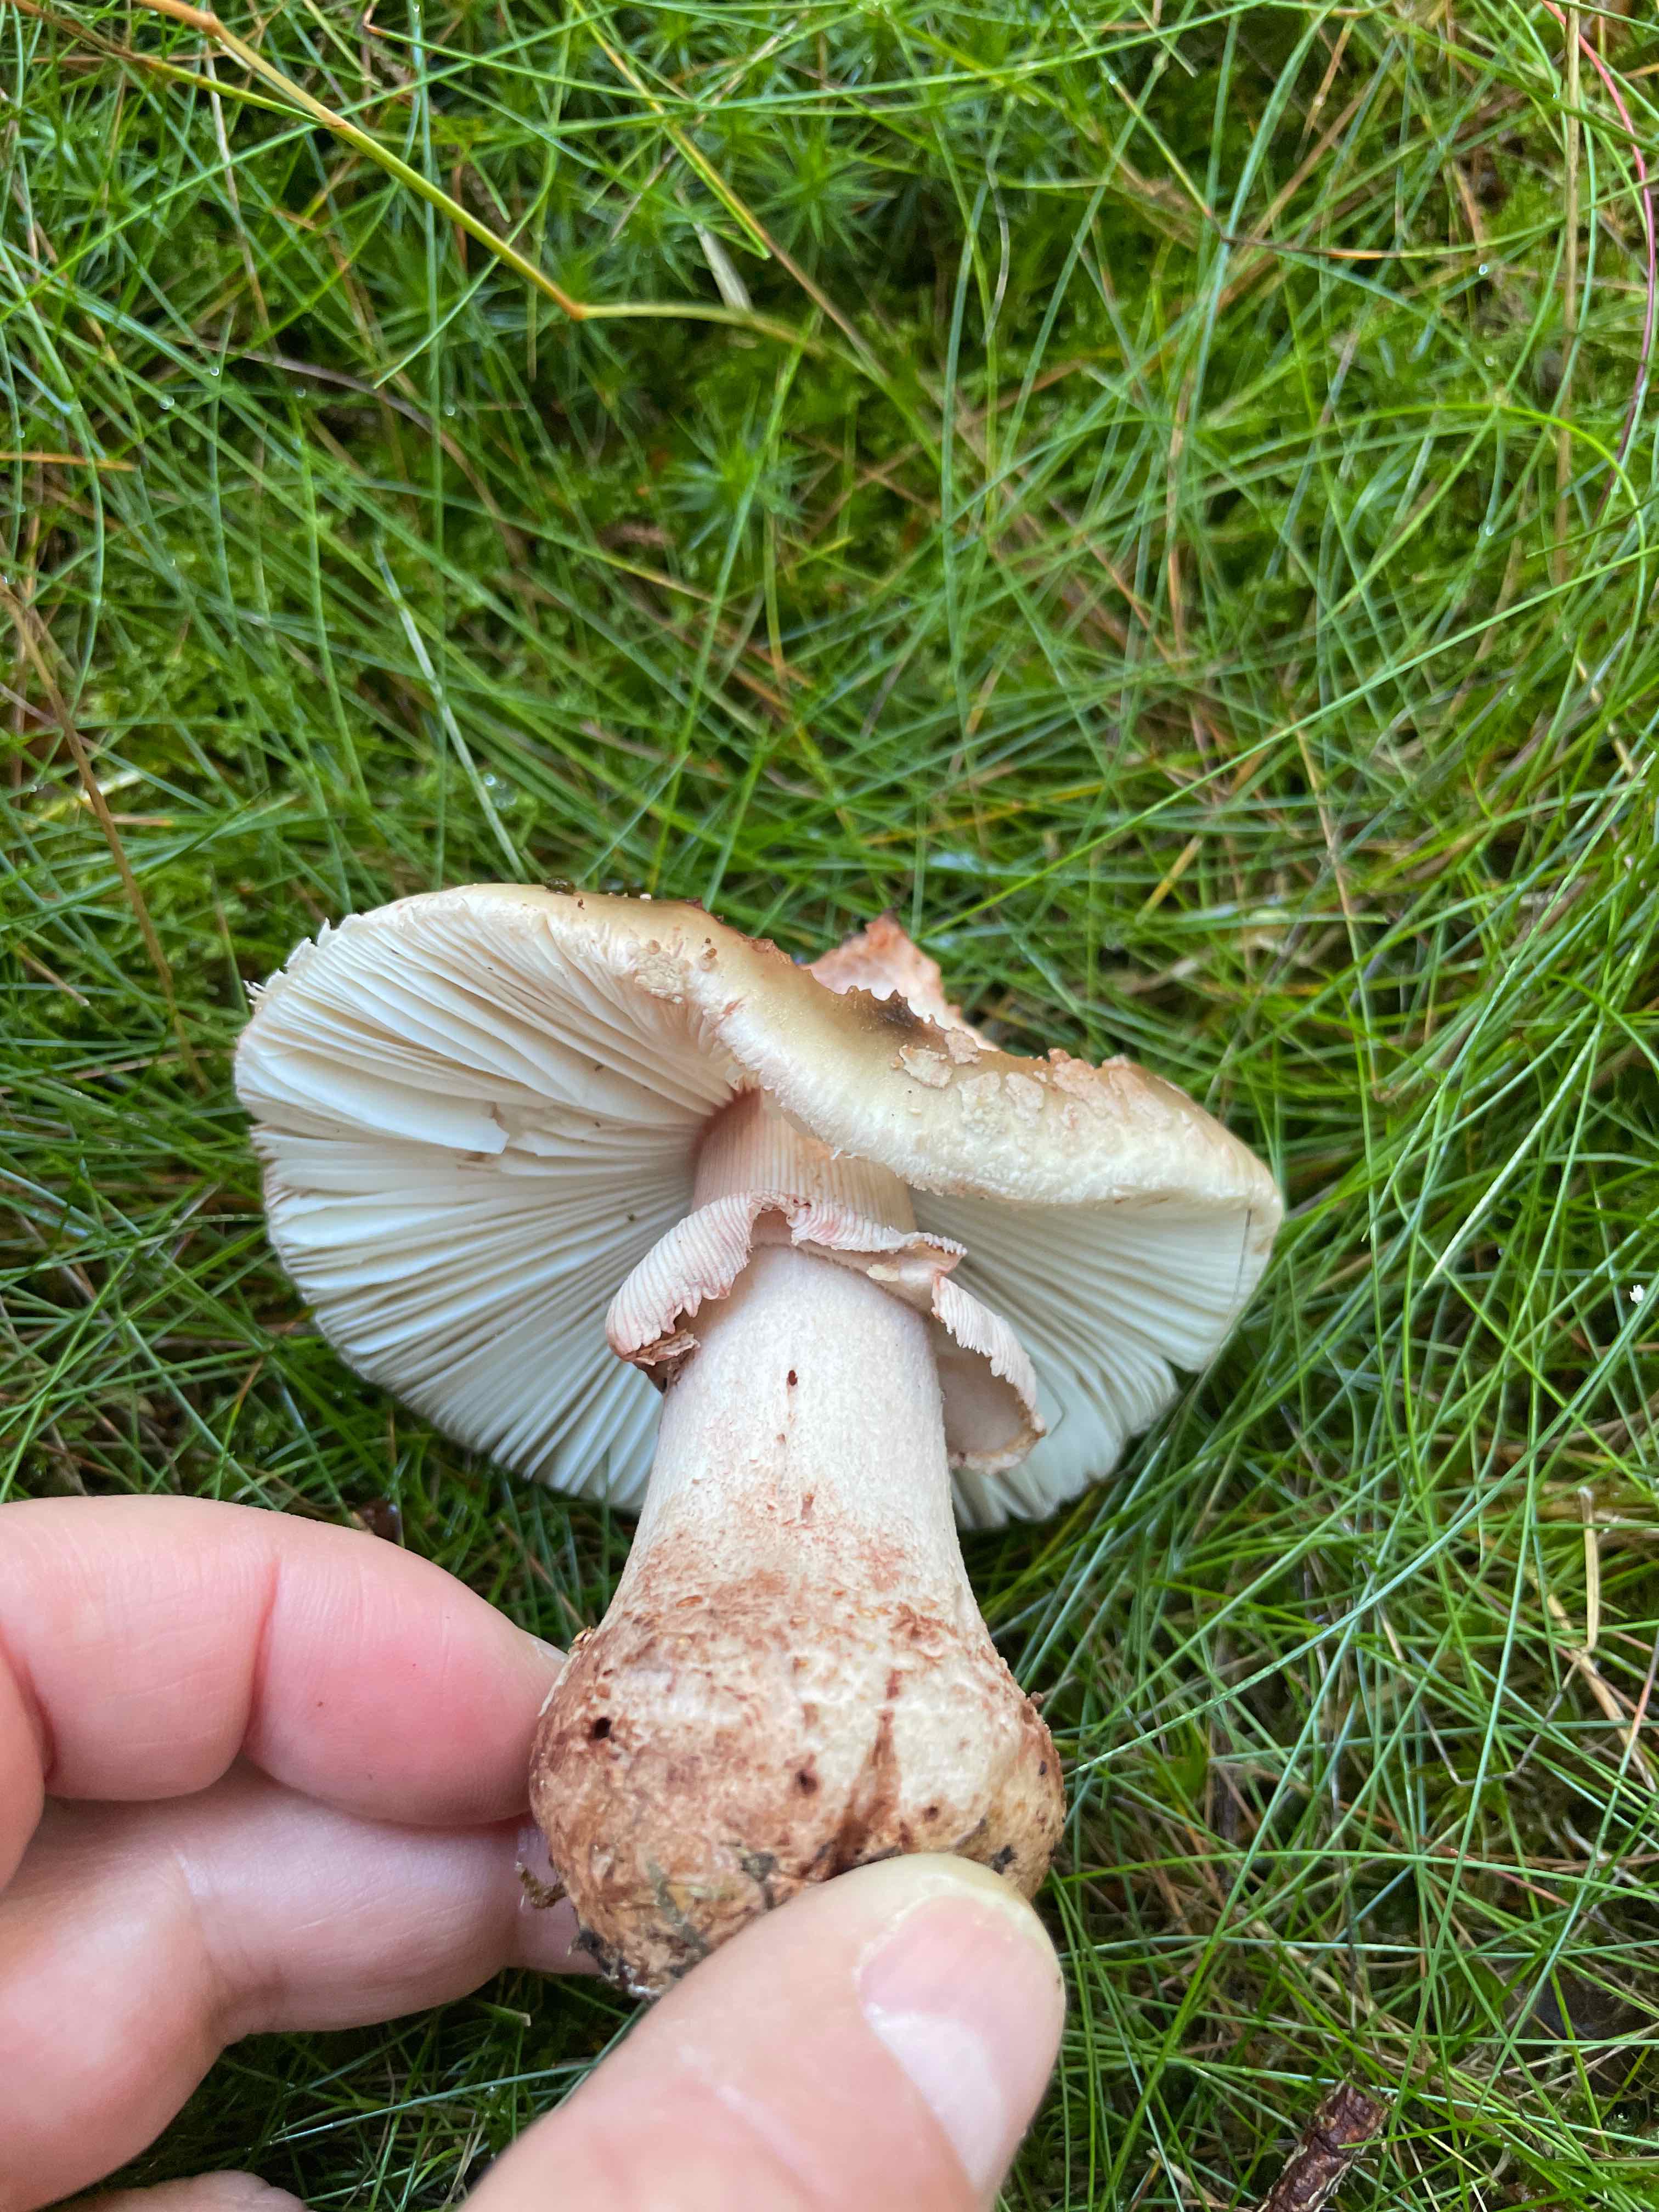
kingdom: Fungi
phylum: Basidiomycota
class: Agaricomycetes
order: Agaricales
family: Amanitaceae
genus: Amanita
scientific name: Amanita rubescens
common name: rødmende fluesvamp
